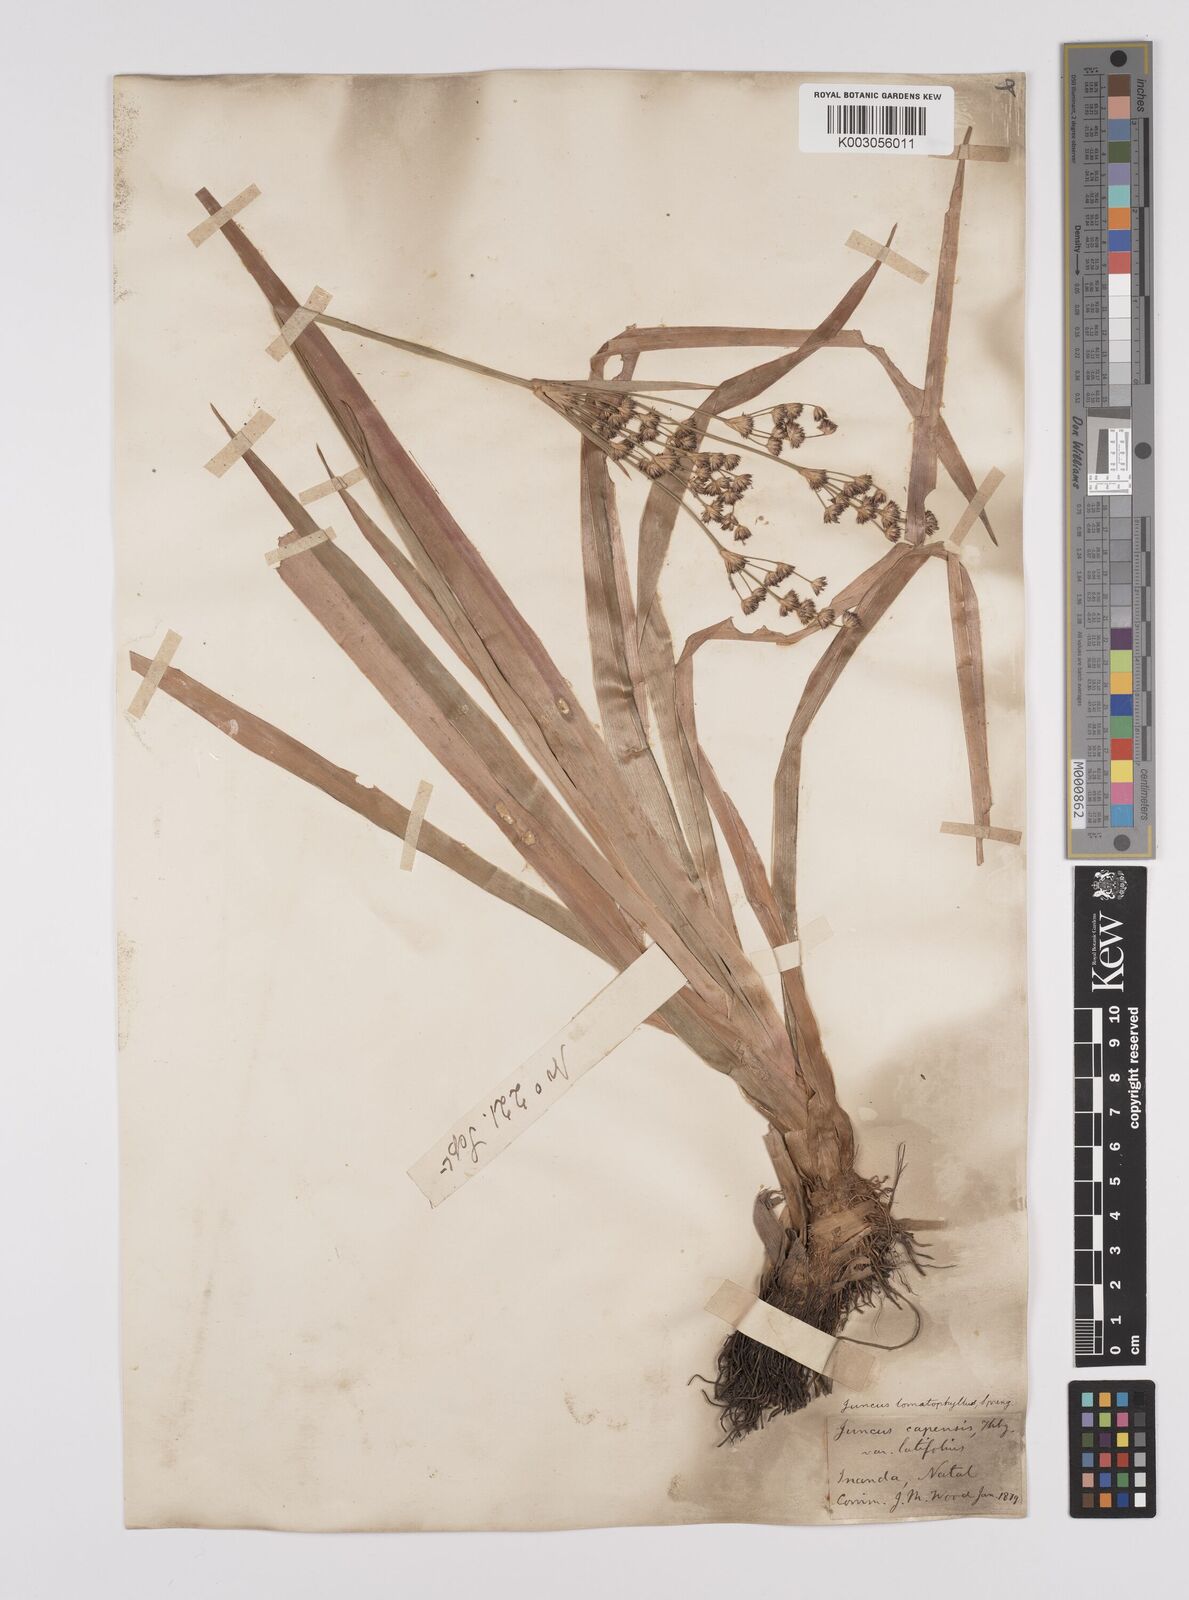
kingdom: Plantae
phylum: Tracheophyta
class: Liliopsida
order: Poales
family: Juncaceae
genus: Juncus
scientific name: Juncus lomatophyllus
